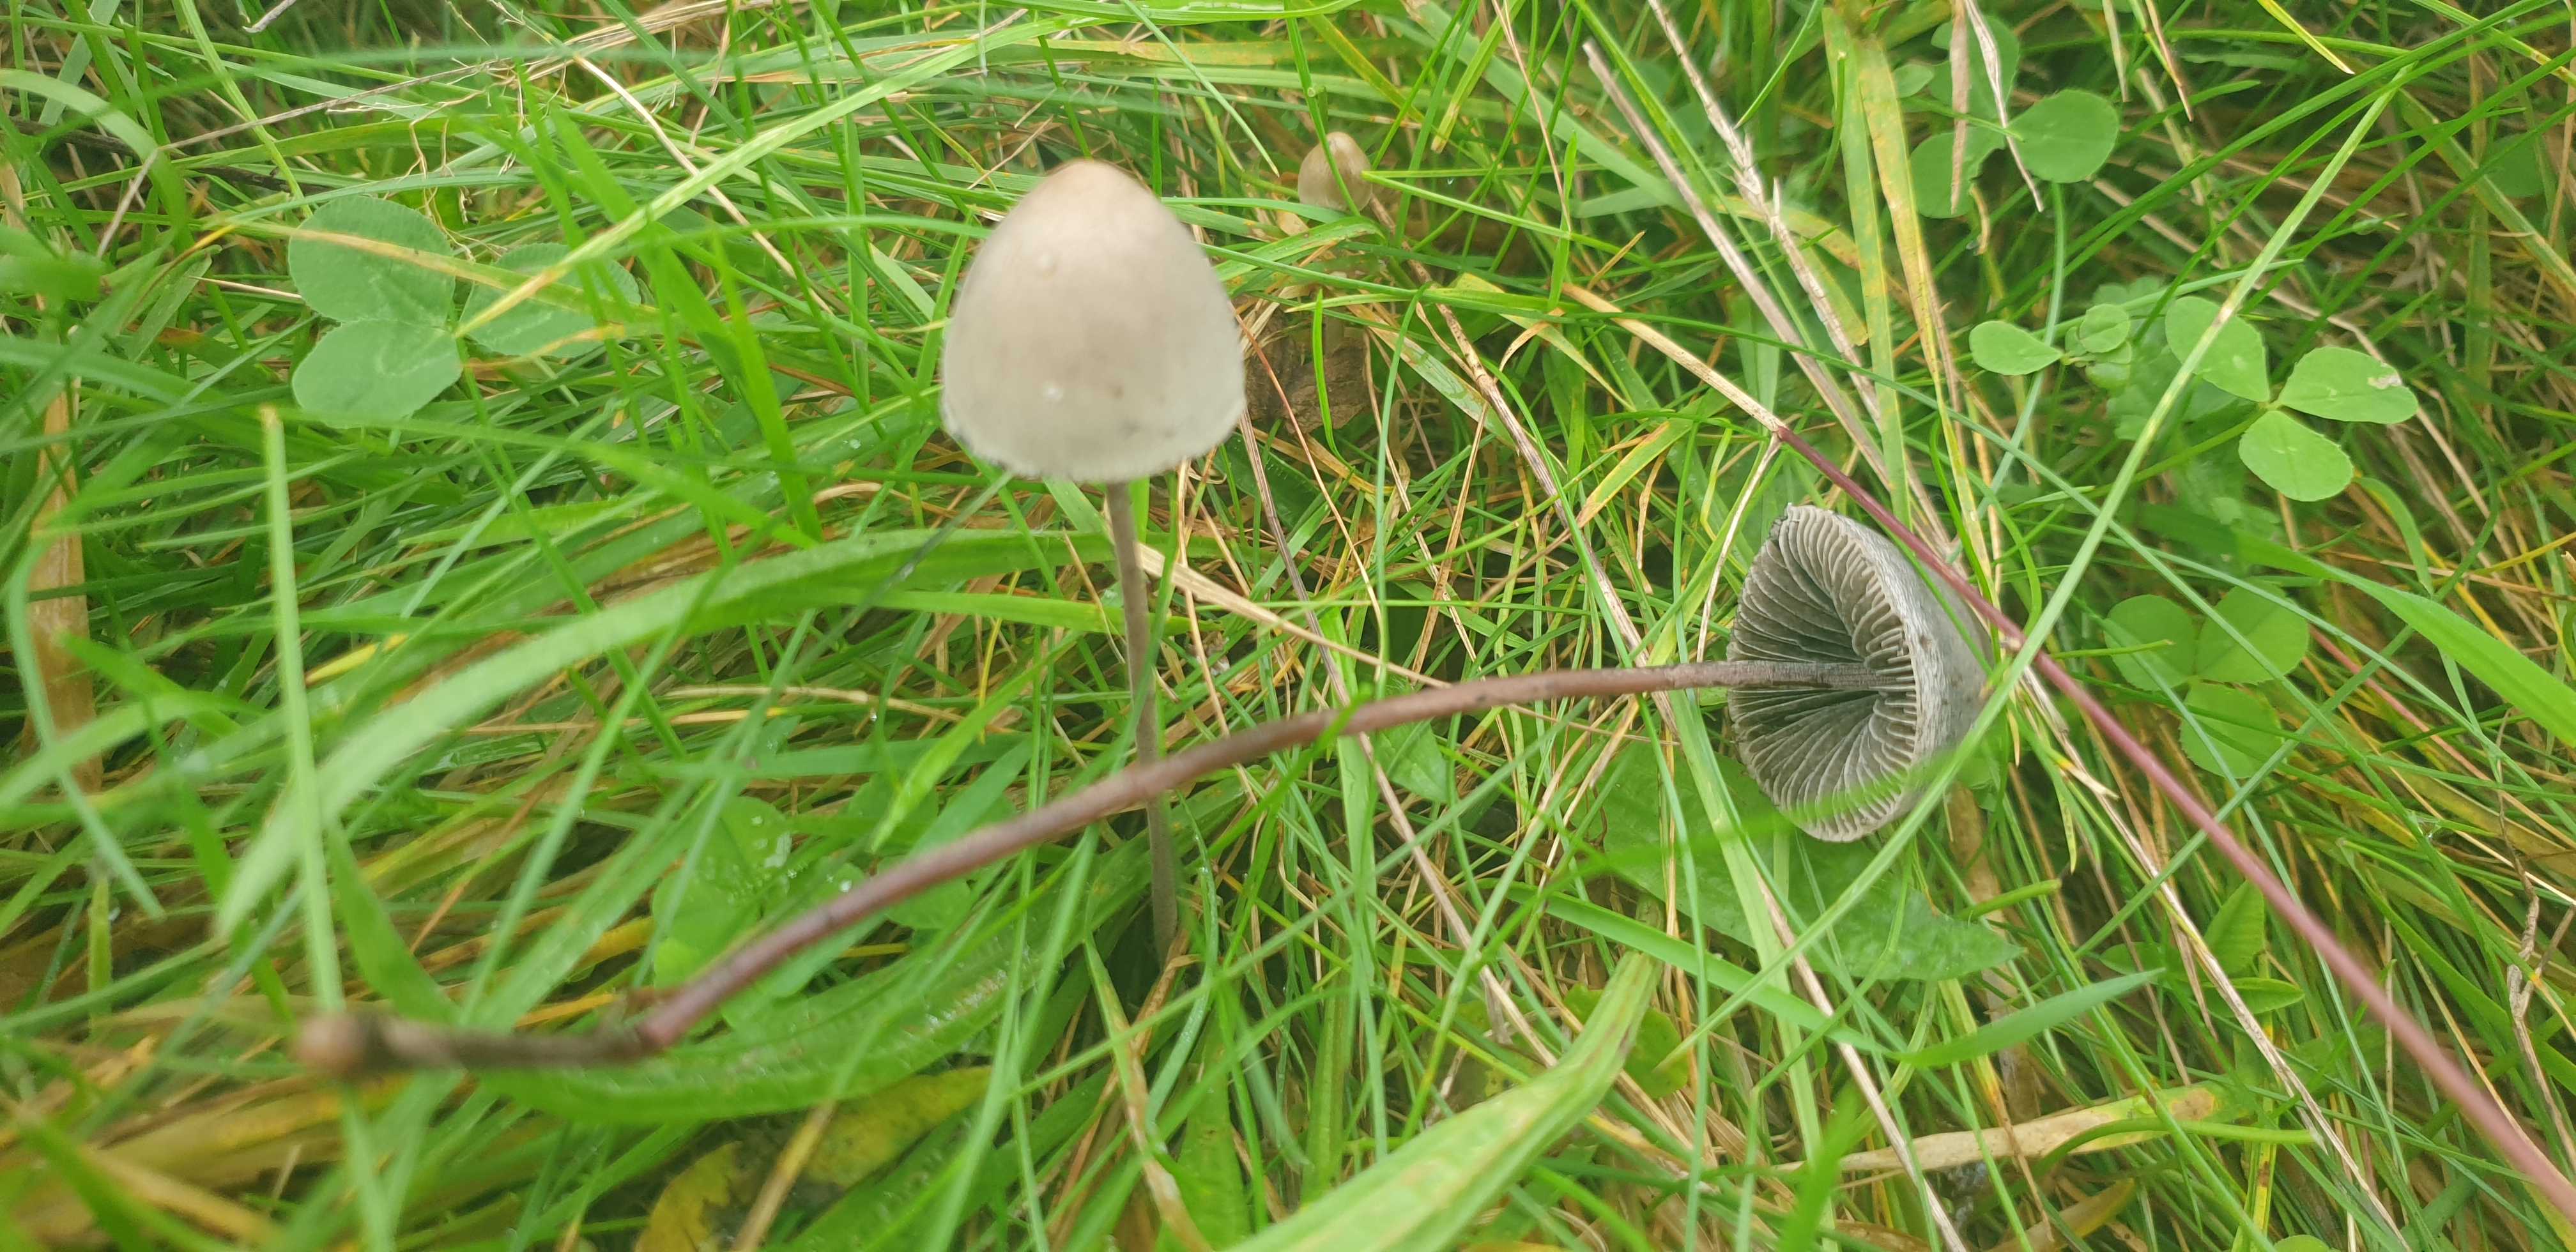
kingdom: Fungi
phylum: Basidiomycota
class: Agaricomycetes
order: Agaricales
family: Bolbitiaceae
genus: Panaeolus
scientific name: Panaeolus papilionaceus
